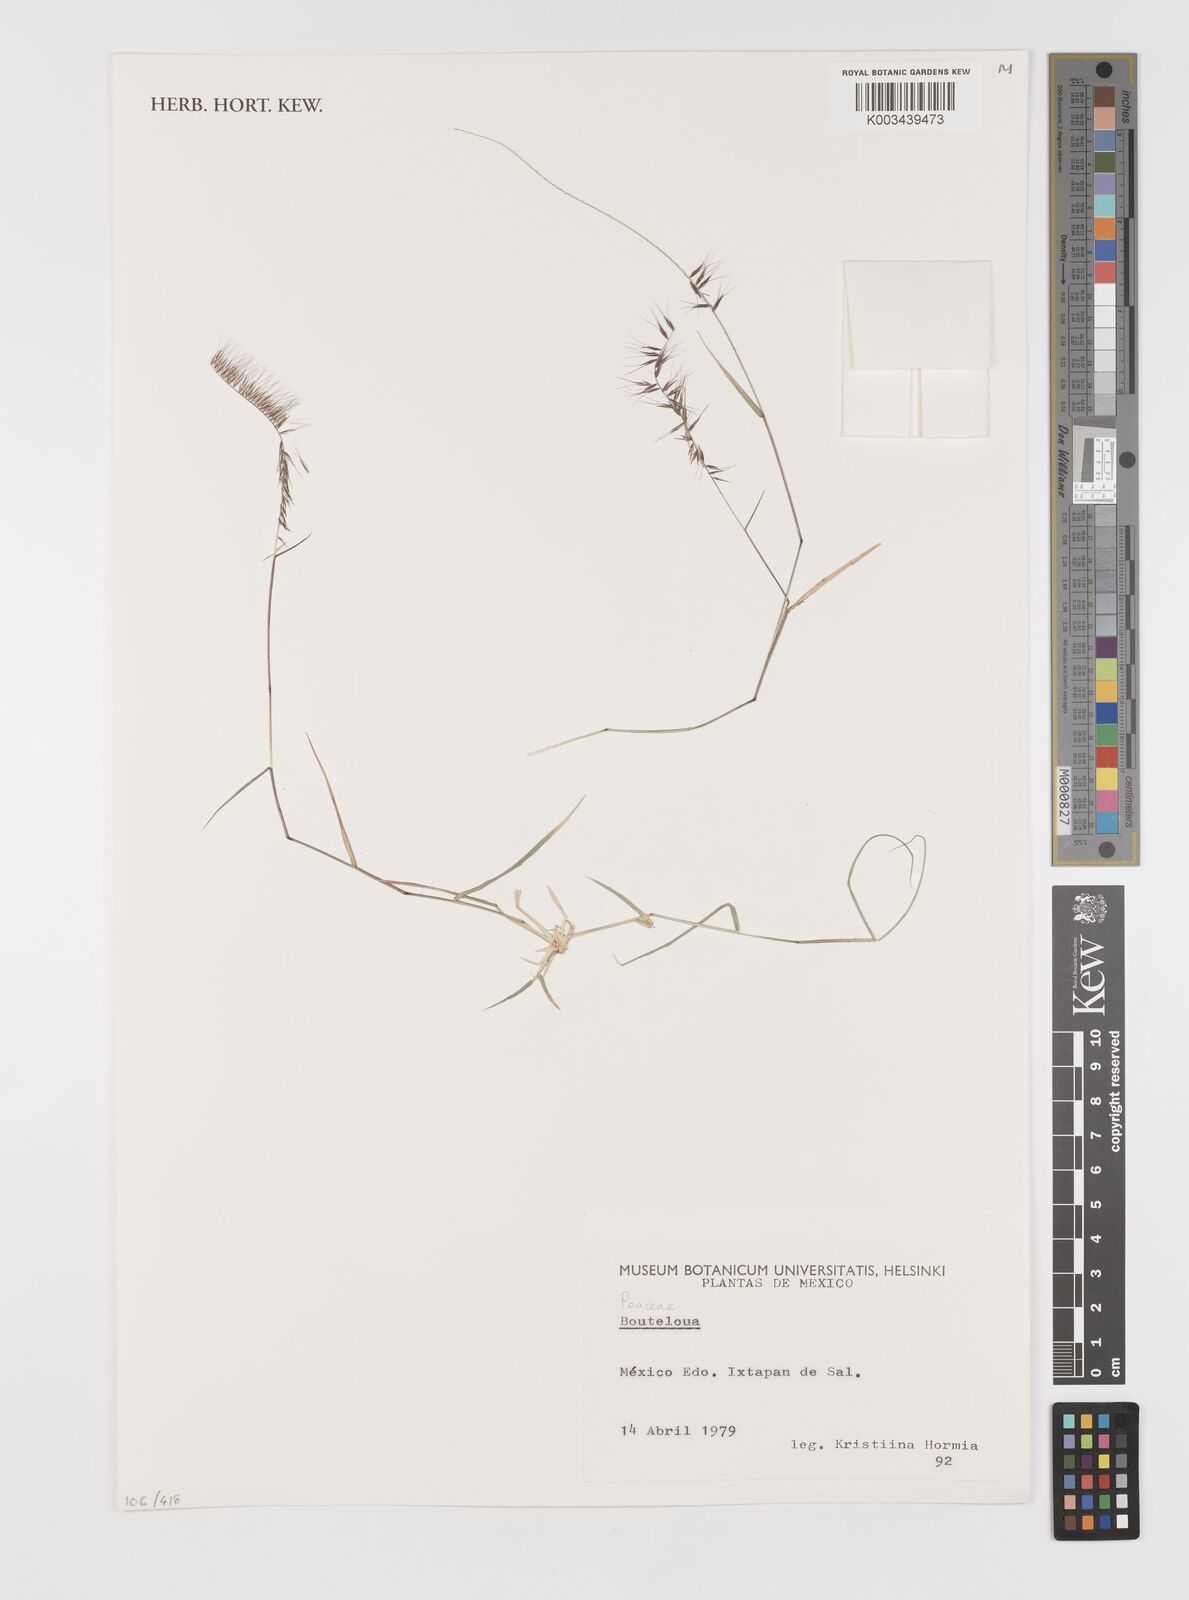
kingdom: Plantae
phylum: Tracheophyta
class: Liliopsida
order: Poales
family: Poaceae
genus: Bouteloua
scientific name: Bouteloua
